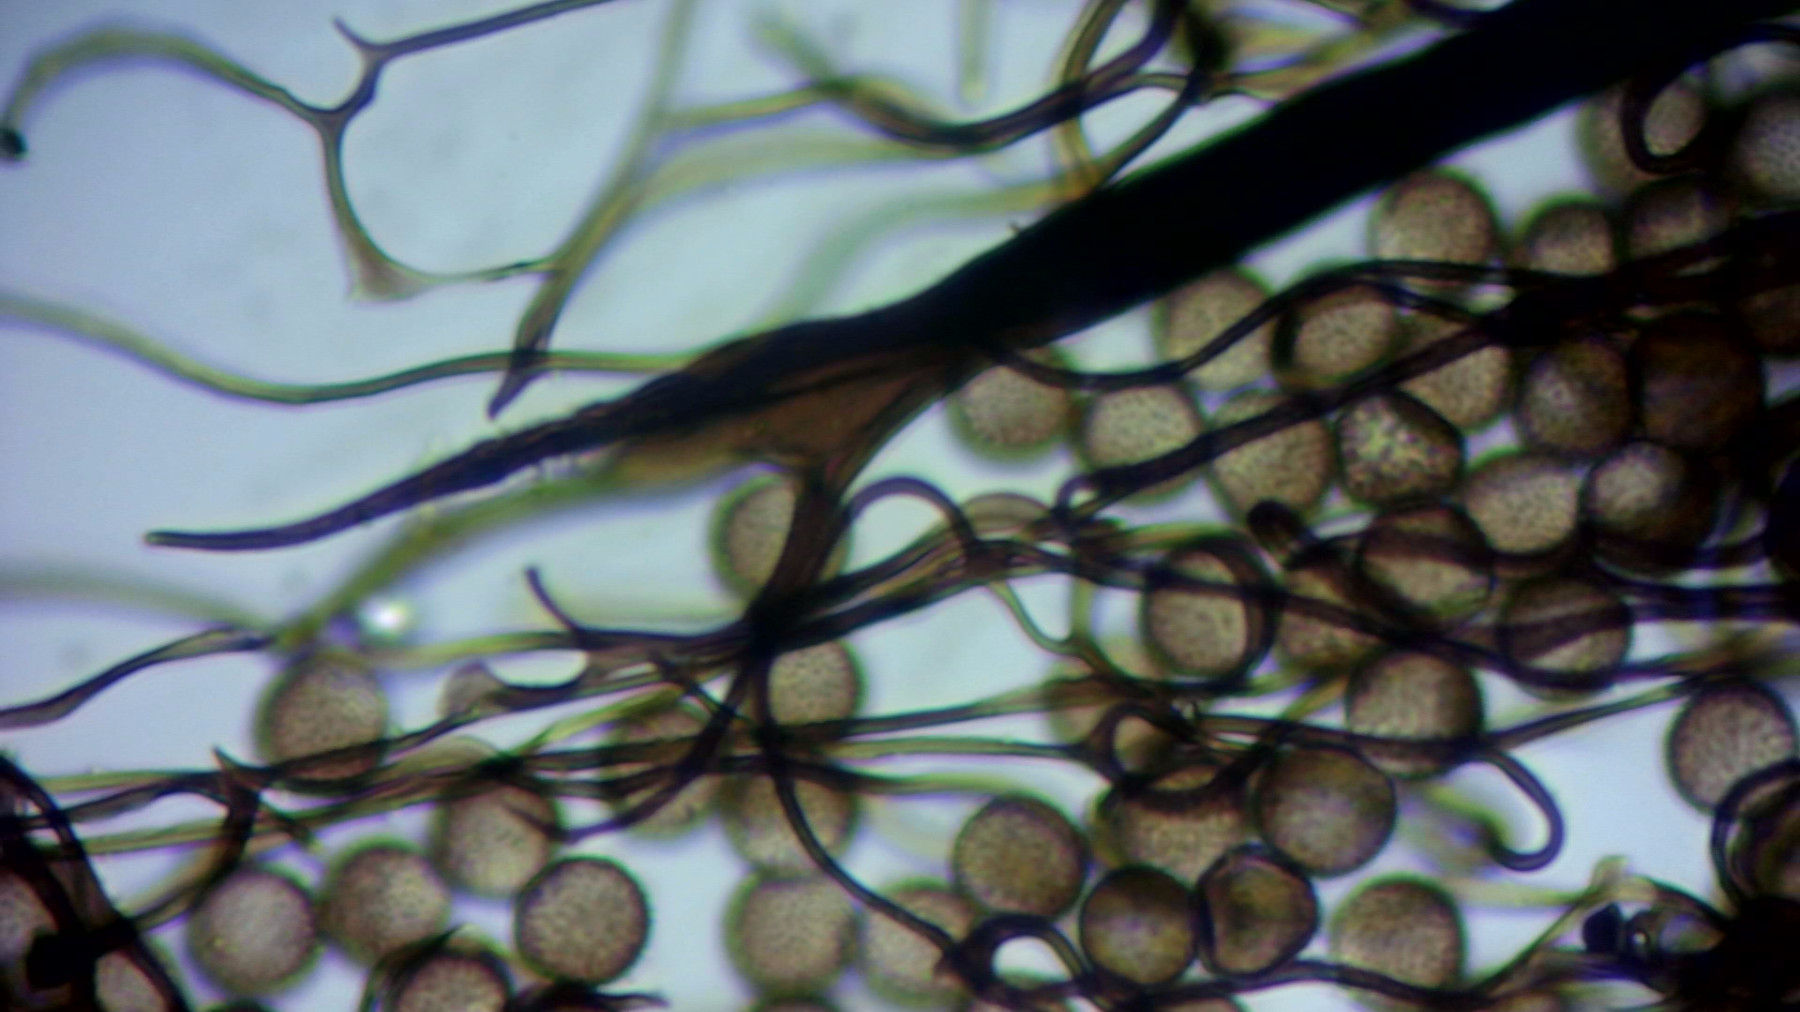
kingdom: Protozoa
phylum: Mycetozoa
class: Myxomycetes
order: Stemonitidales
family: Stemonitidaceae
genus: Comatricha
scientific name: Comatricha alta
